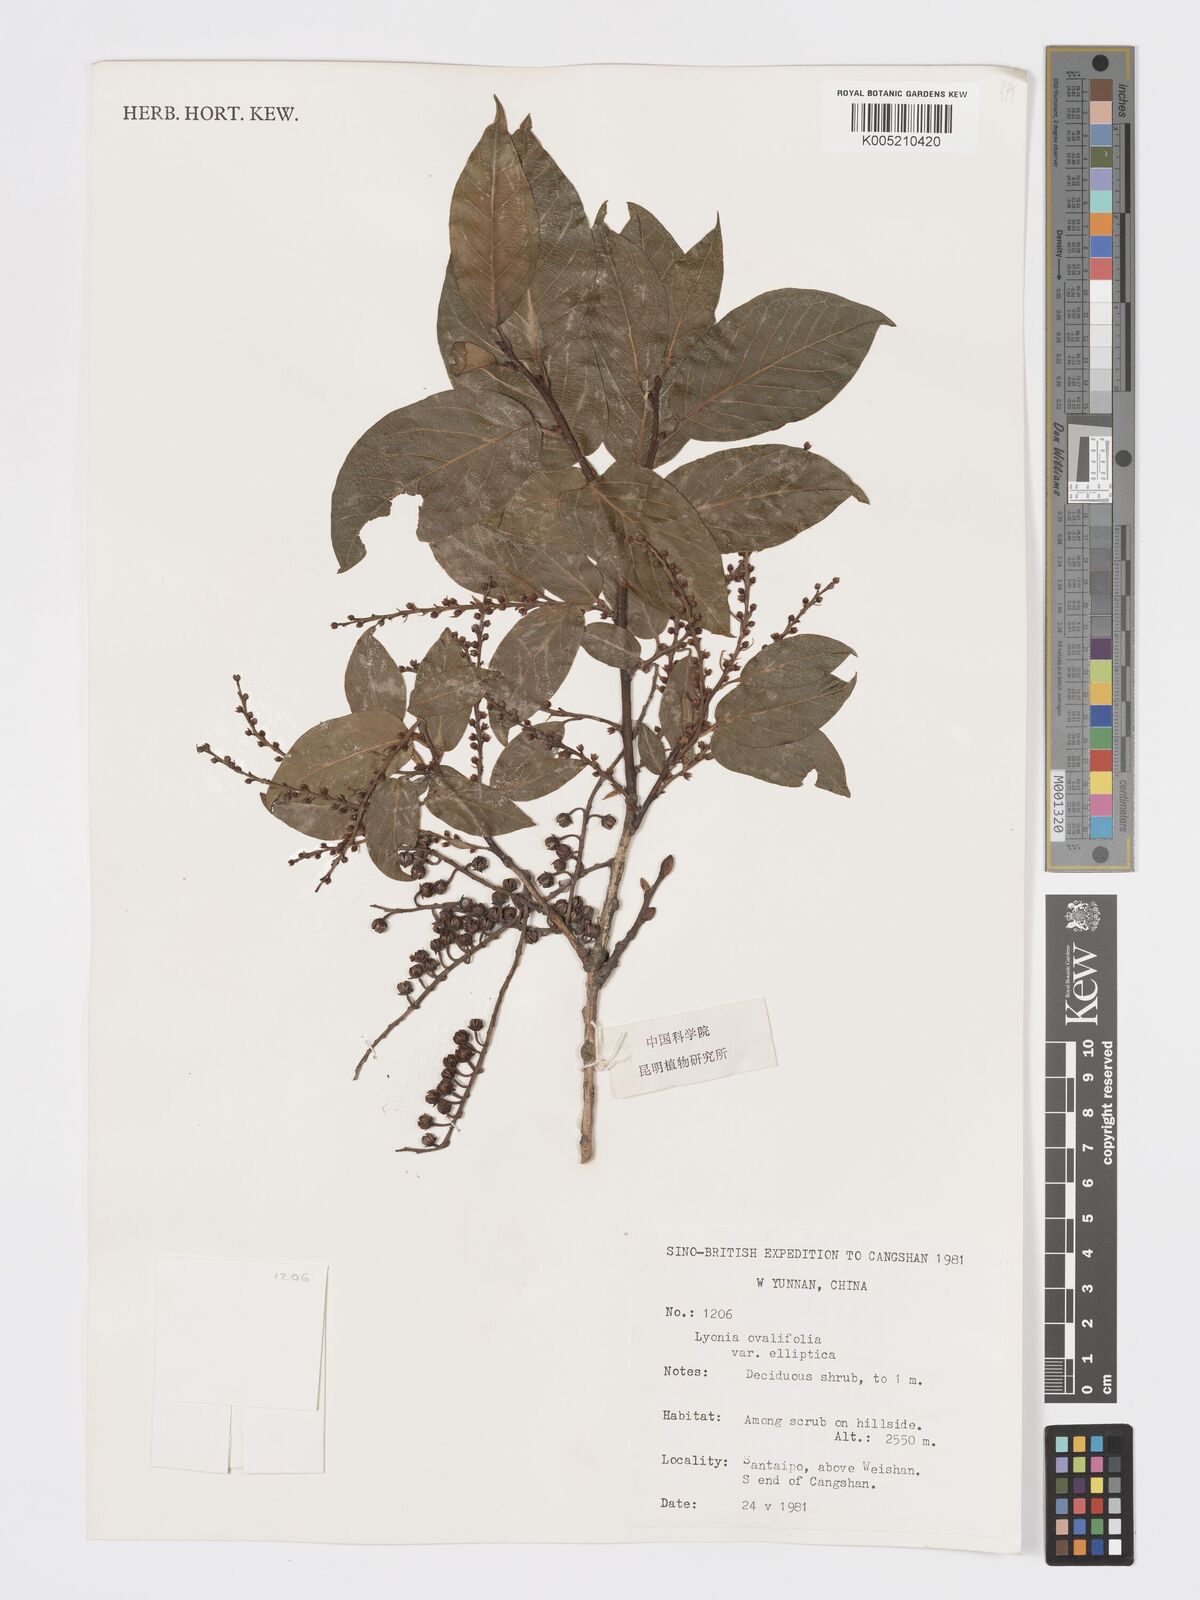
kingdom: Plantae
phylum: Tracheophyta
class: Magnoliopsida
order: Ericales
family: Ericaceae
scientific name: Ericaceae
